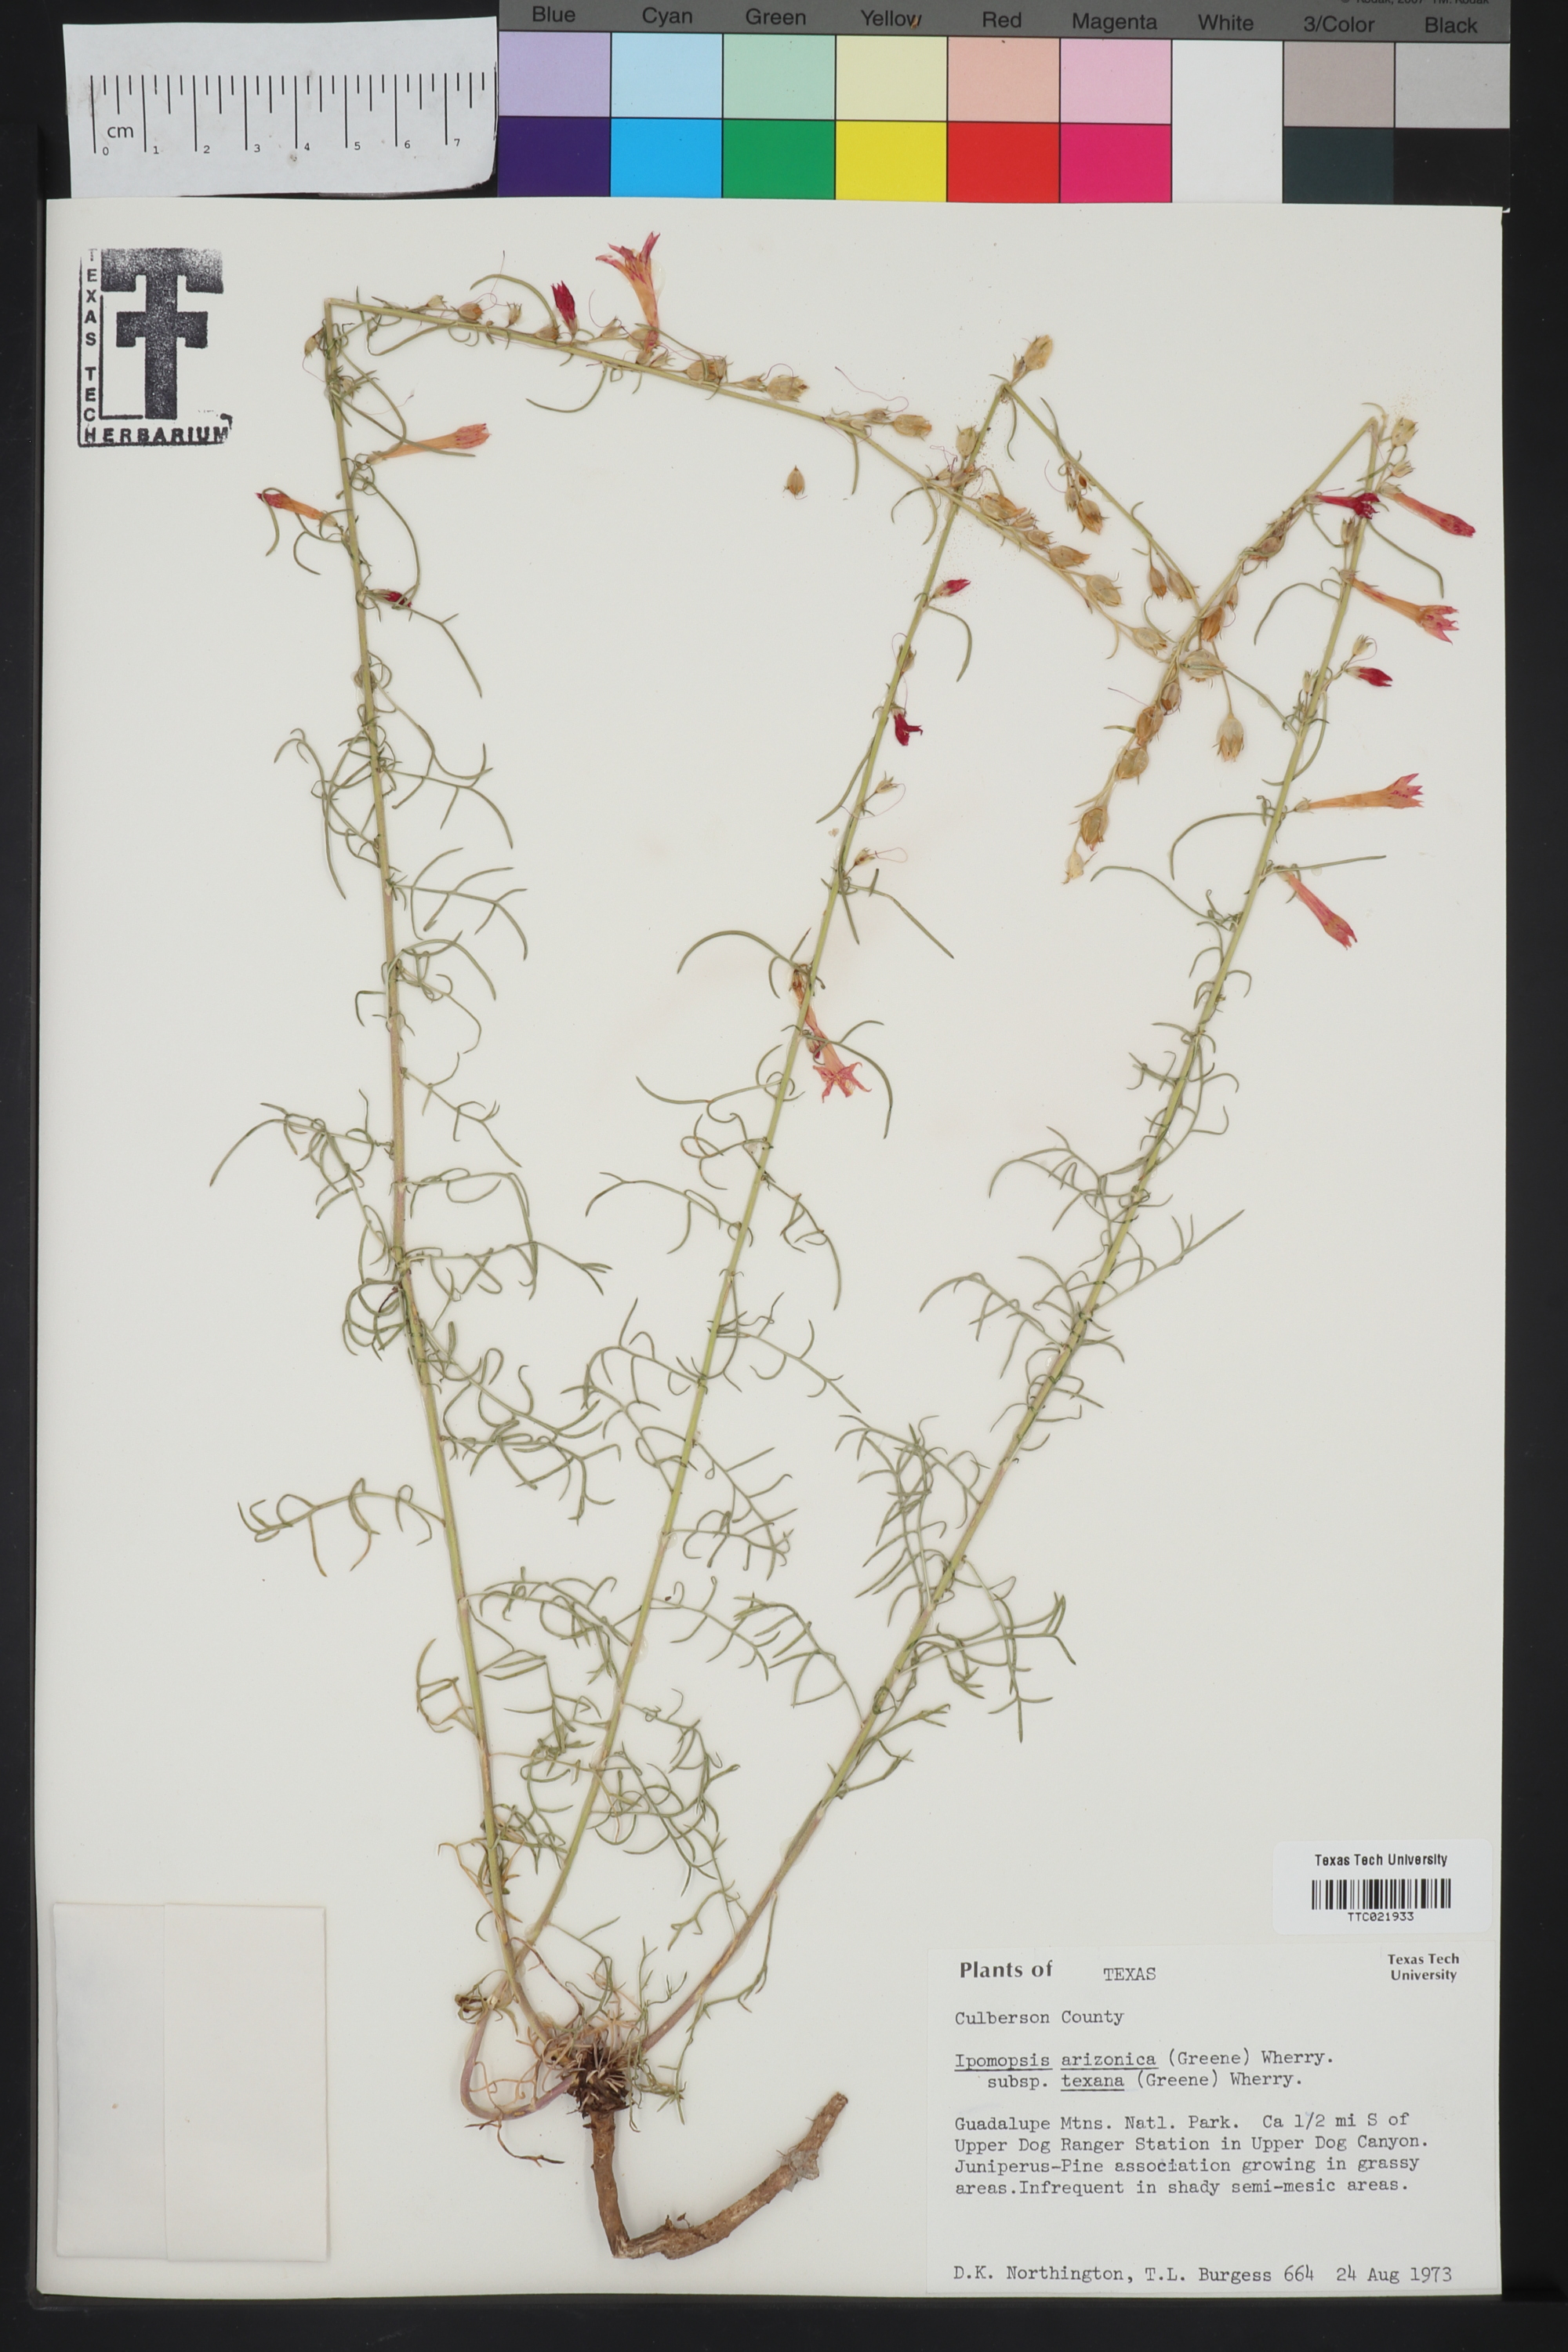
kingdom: Plantae
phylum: Tracheophyta
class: Magnoliopsida
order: Ericales
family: Polemoniaceae
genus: Ipomopsis
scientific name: Ipomopsis aggregata
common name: Scarlet gilia
